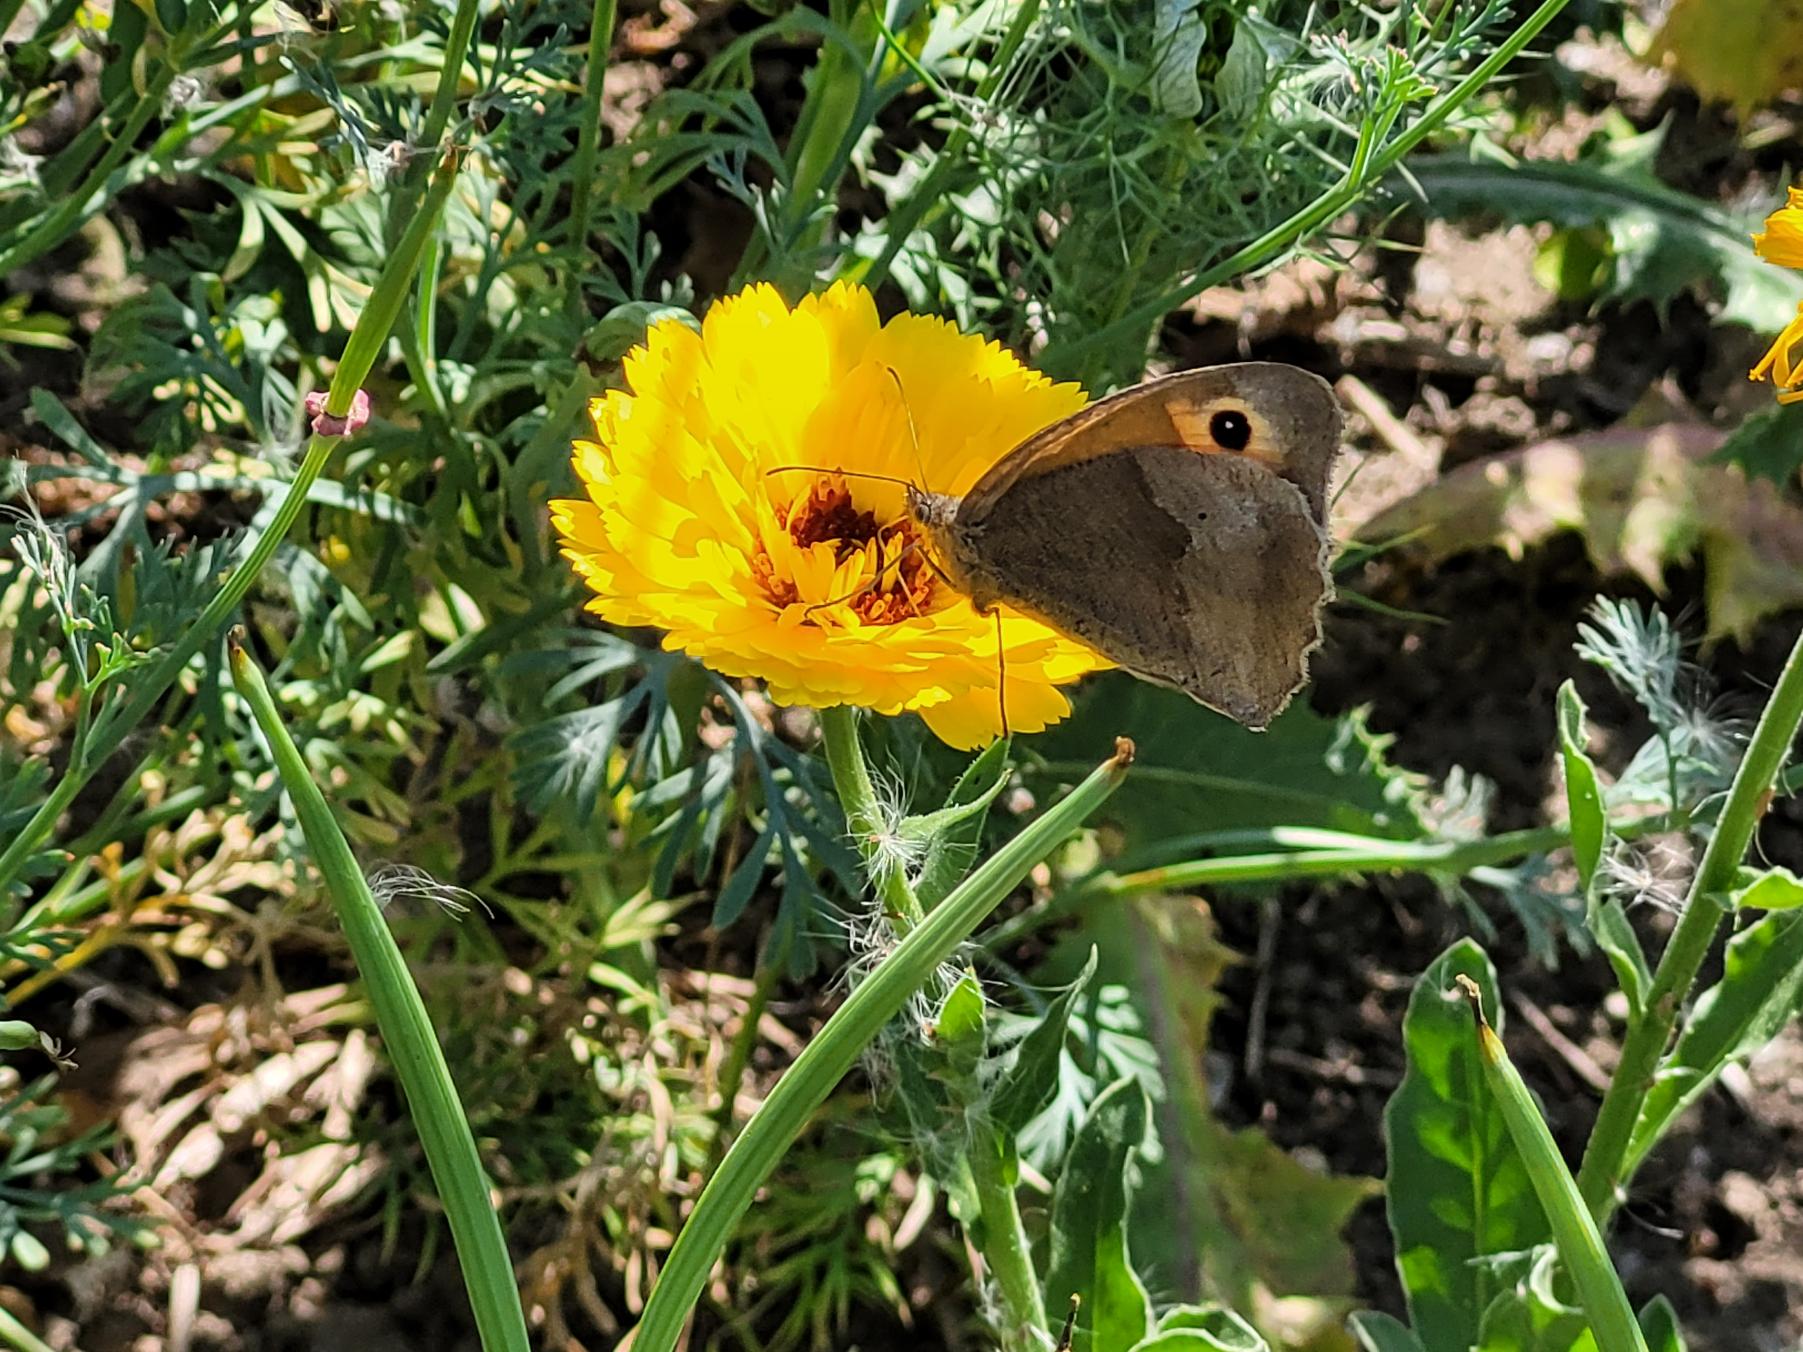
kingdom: Animalia
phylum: Arthropoda
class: Insecta
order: Lepidoptera
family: Nymphalidae
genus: Maniola
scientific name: Maniola jurtina
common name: Græsrandøje
